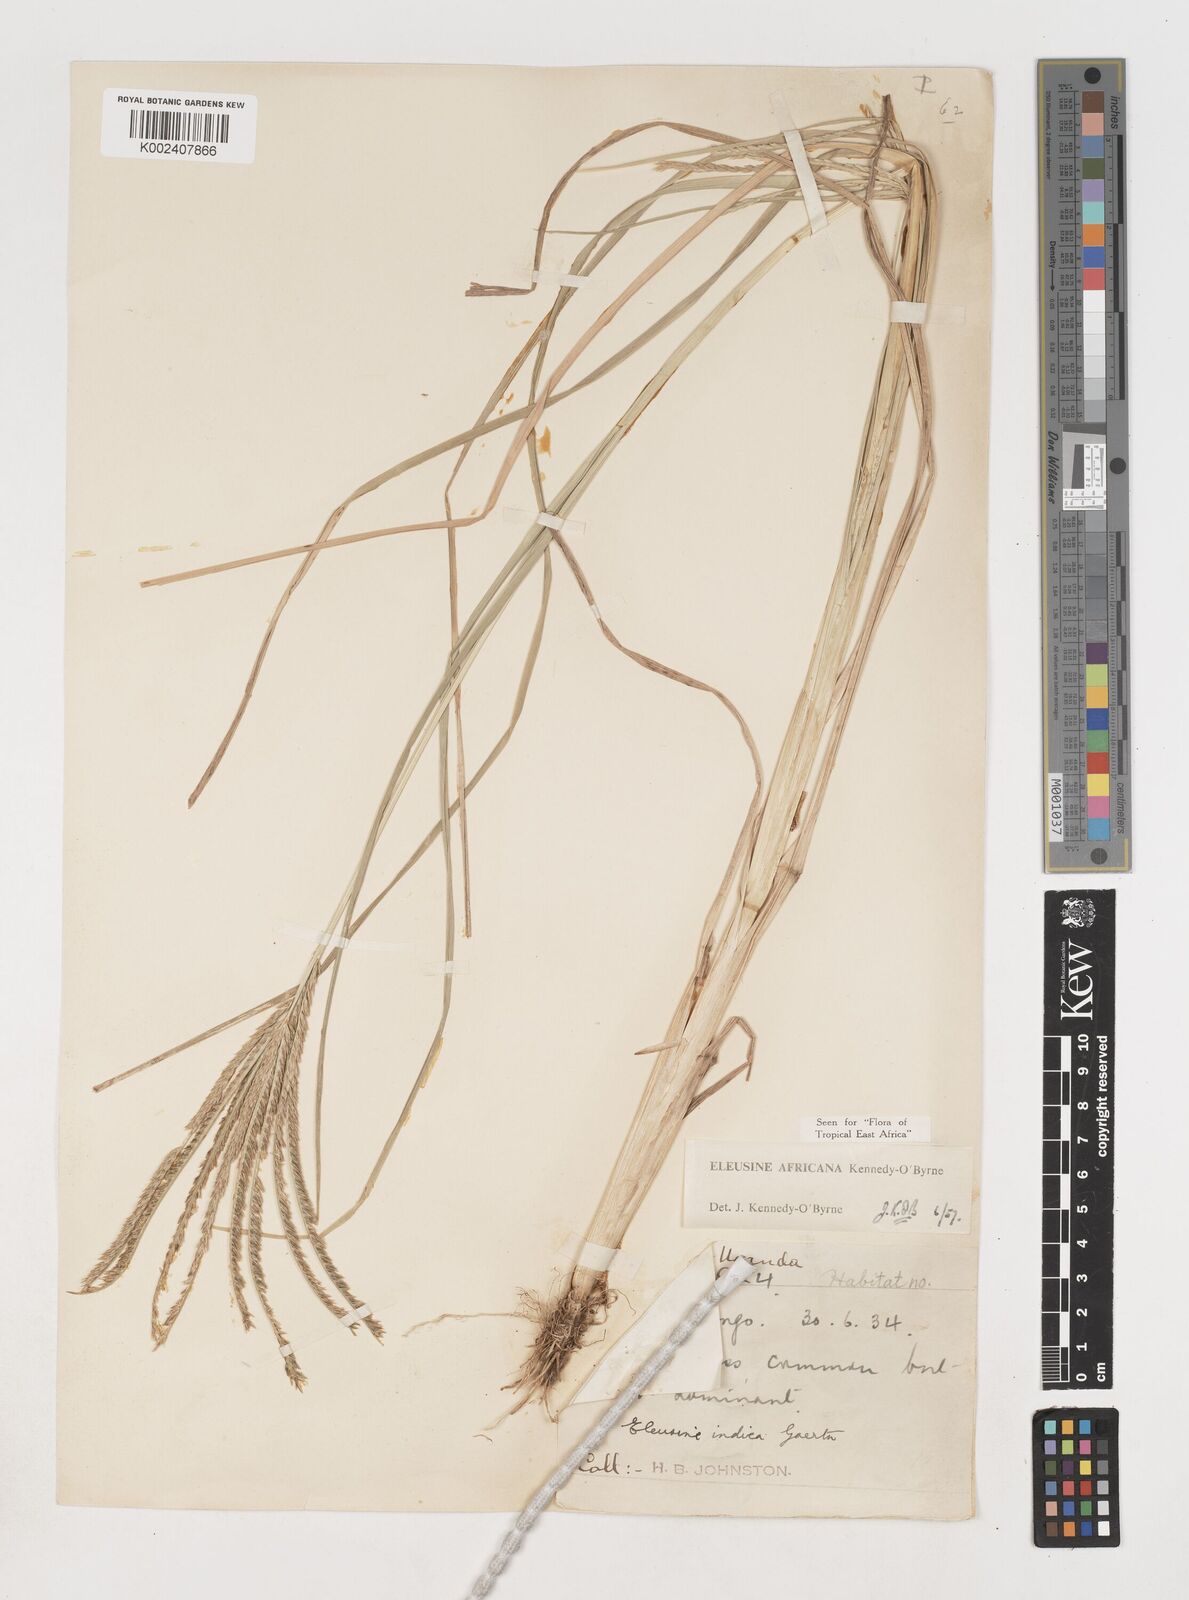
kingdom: Plantae
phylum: Tracheophyta
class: Liliopsida
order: Poales
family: Poaceae
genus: Eleusine
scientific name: Eleusine africana
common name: Wild african finger millet
